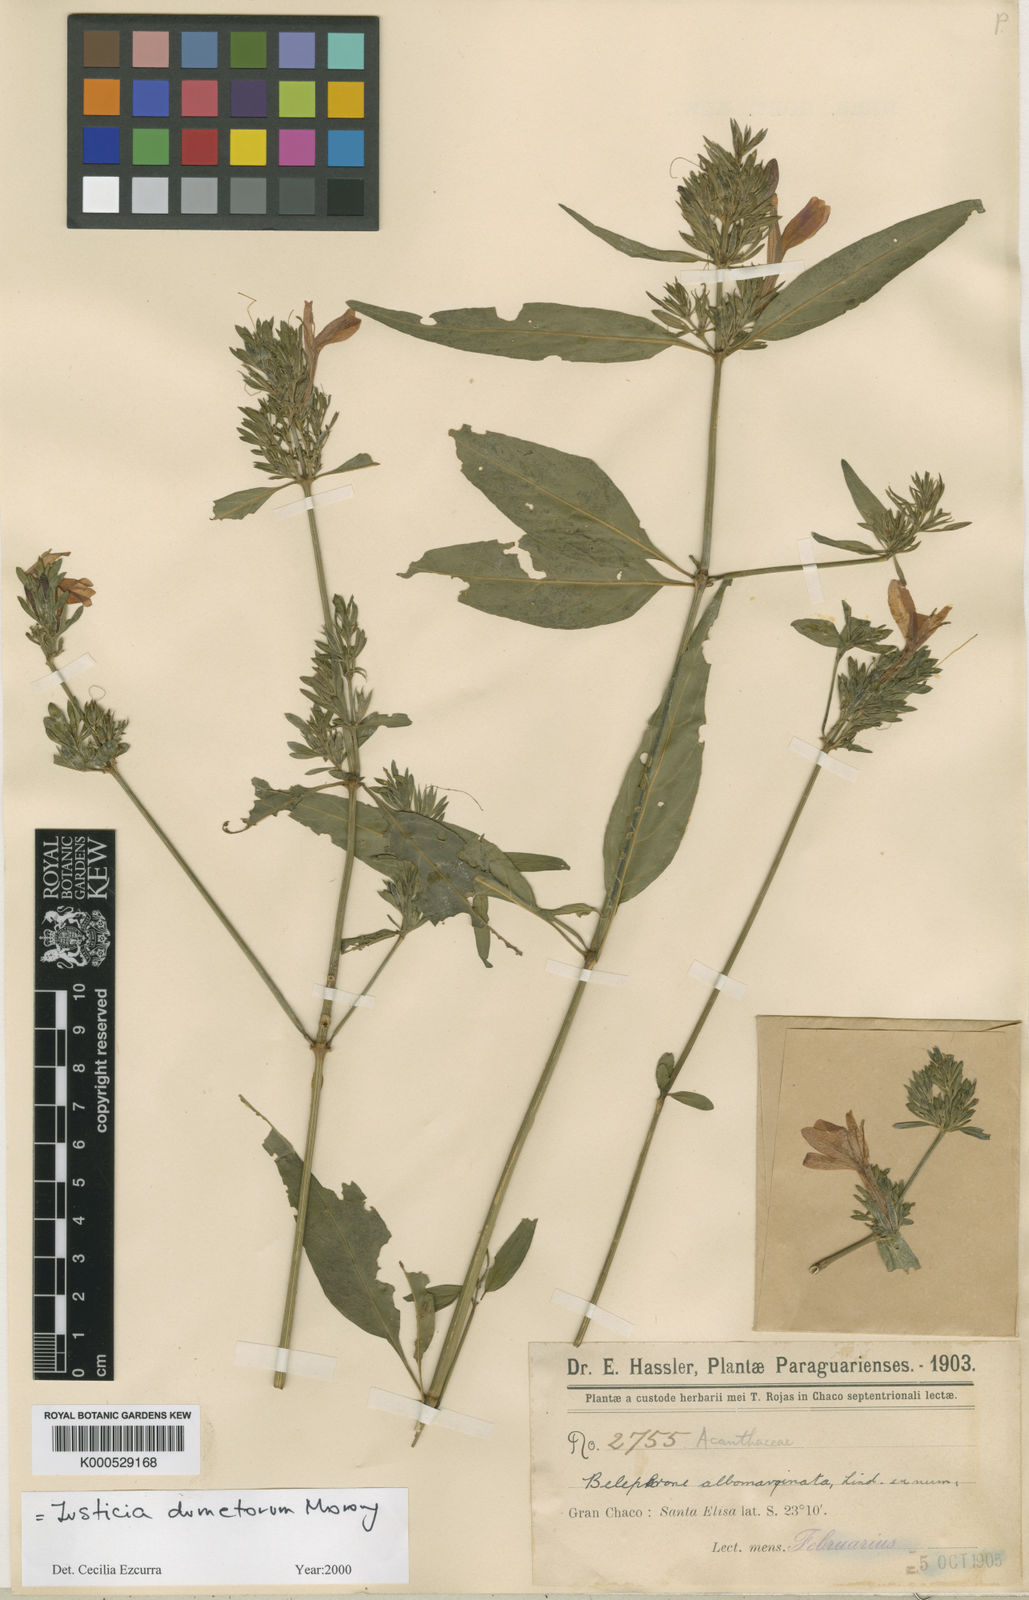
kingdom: Plantae
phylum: Tracheophyta
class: Magnoliopsida
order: Lamiales
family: Acanthaceae
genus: Justicia
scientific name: Justicia dumetorum
